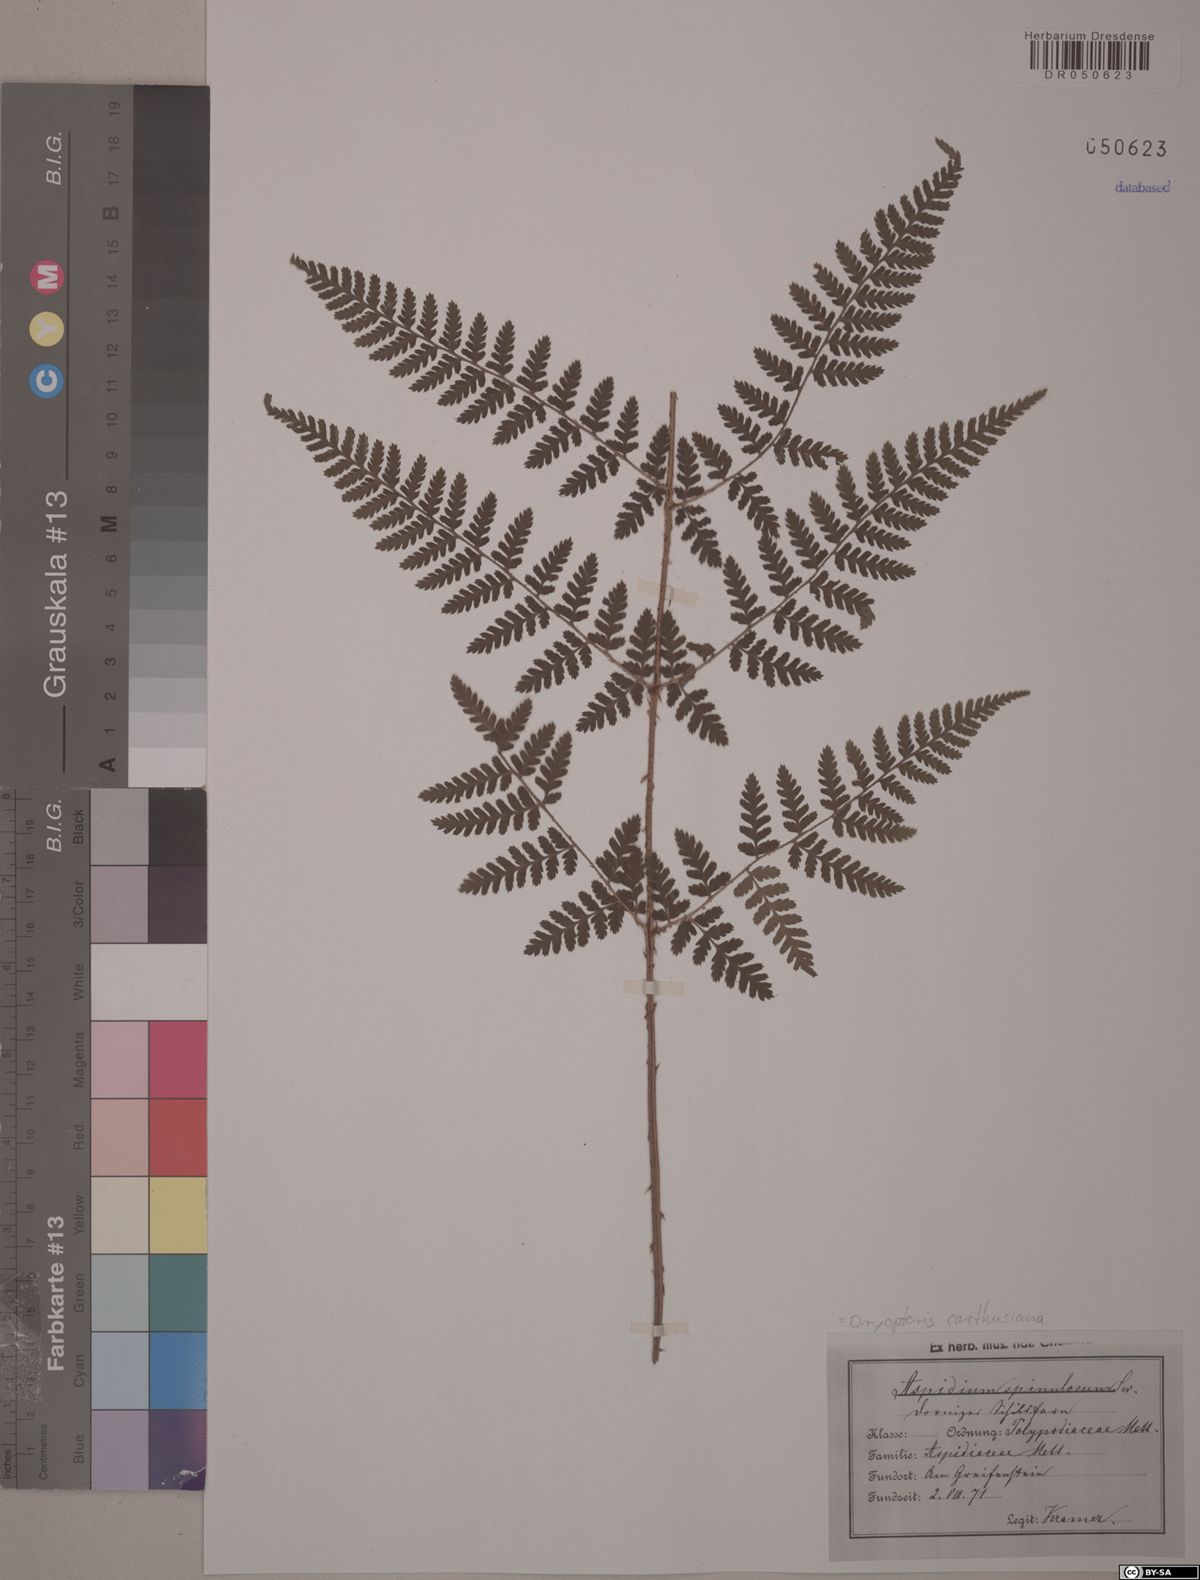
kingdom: Plantae
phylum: Tracheophyta
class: Polypodiopsida
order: Polypodiales
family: Dryopteridaceae
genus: Dryopteris
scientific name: Dryopteris carthusiana
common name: Narrow buckler-fern
